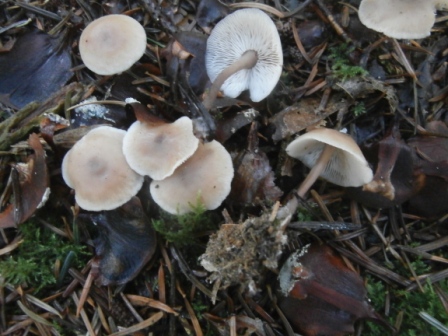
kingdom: Fungi
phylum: Basidiomycota
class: Agaricomycetes
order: Agaricales
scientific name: Agaricales
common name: champignonordenen
